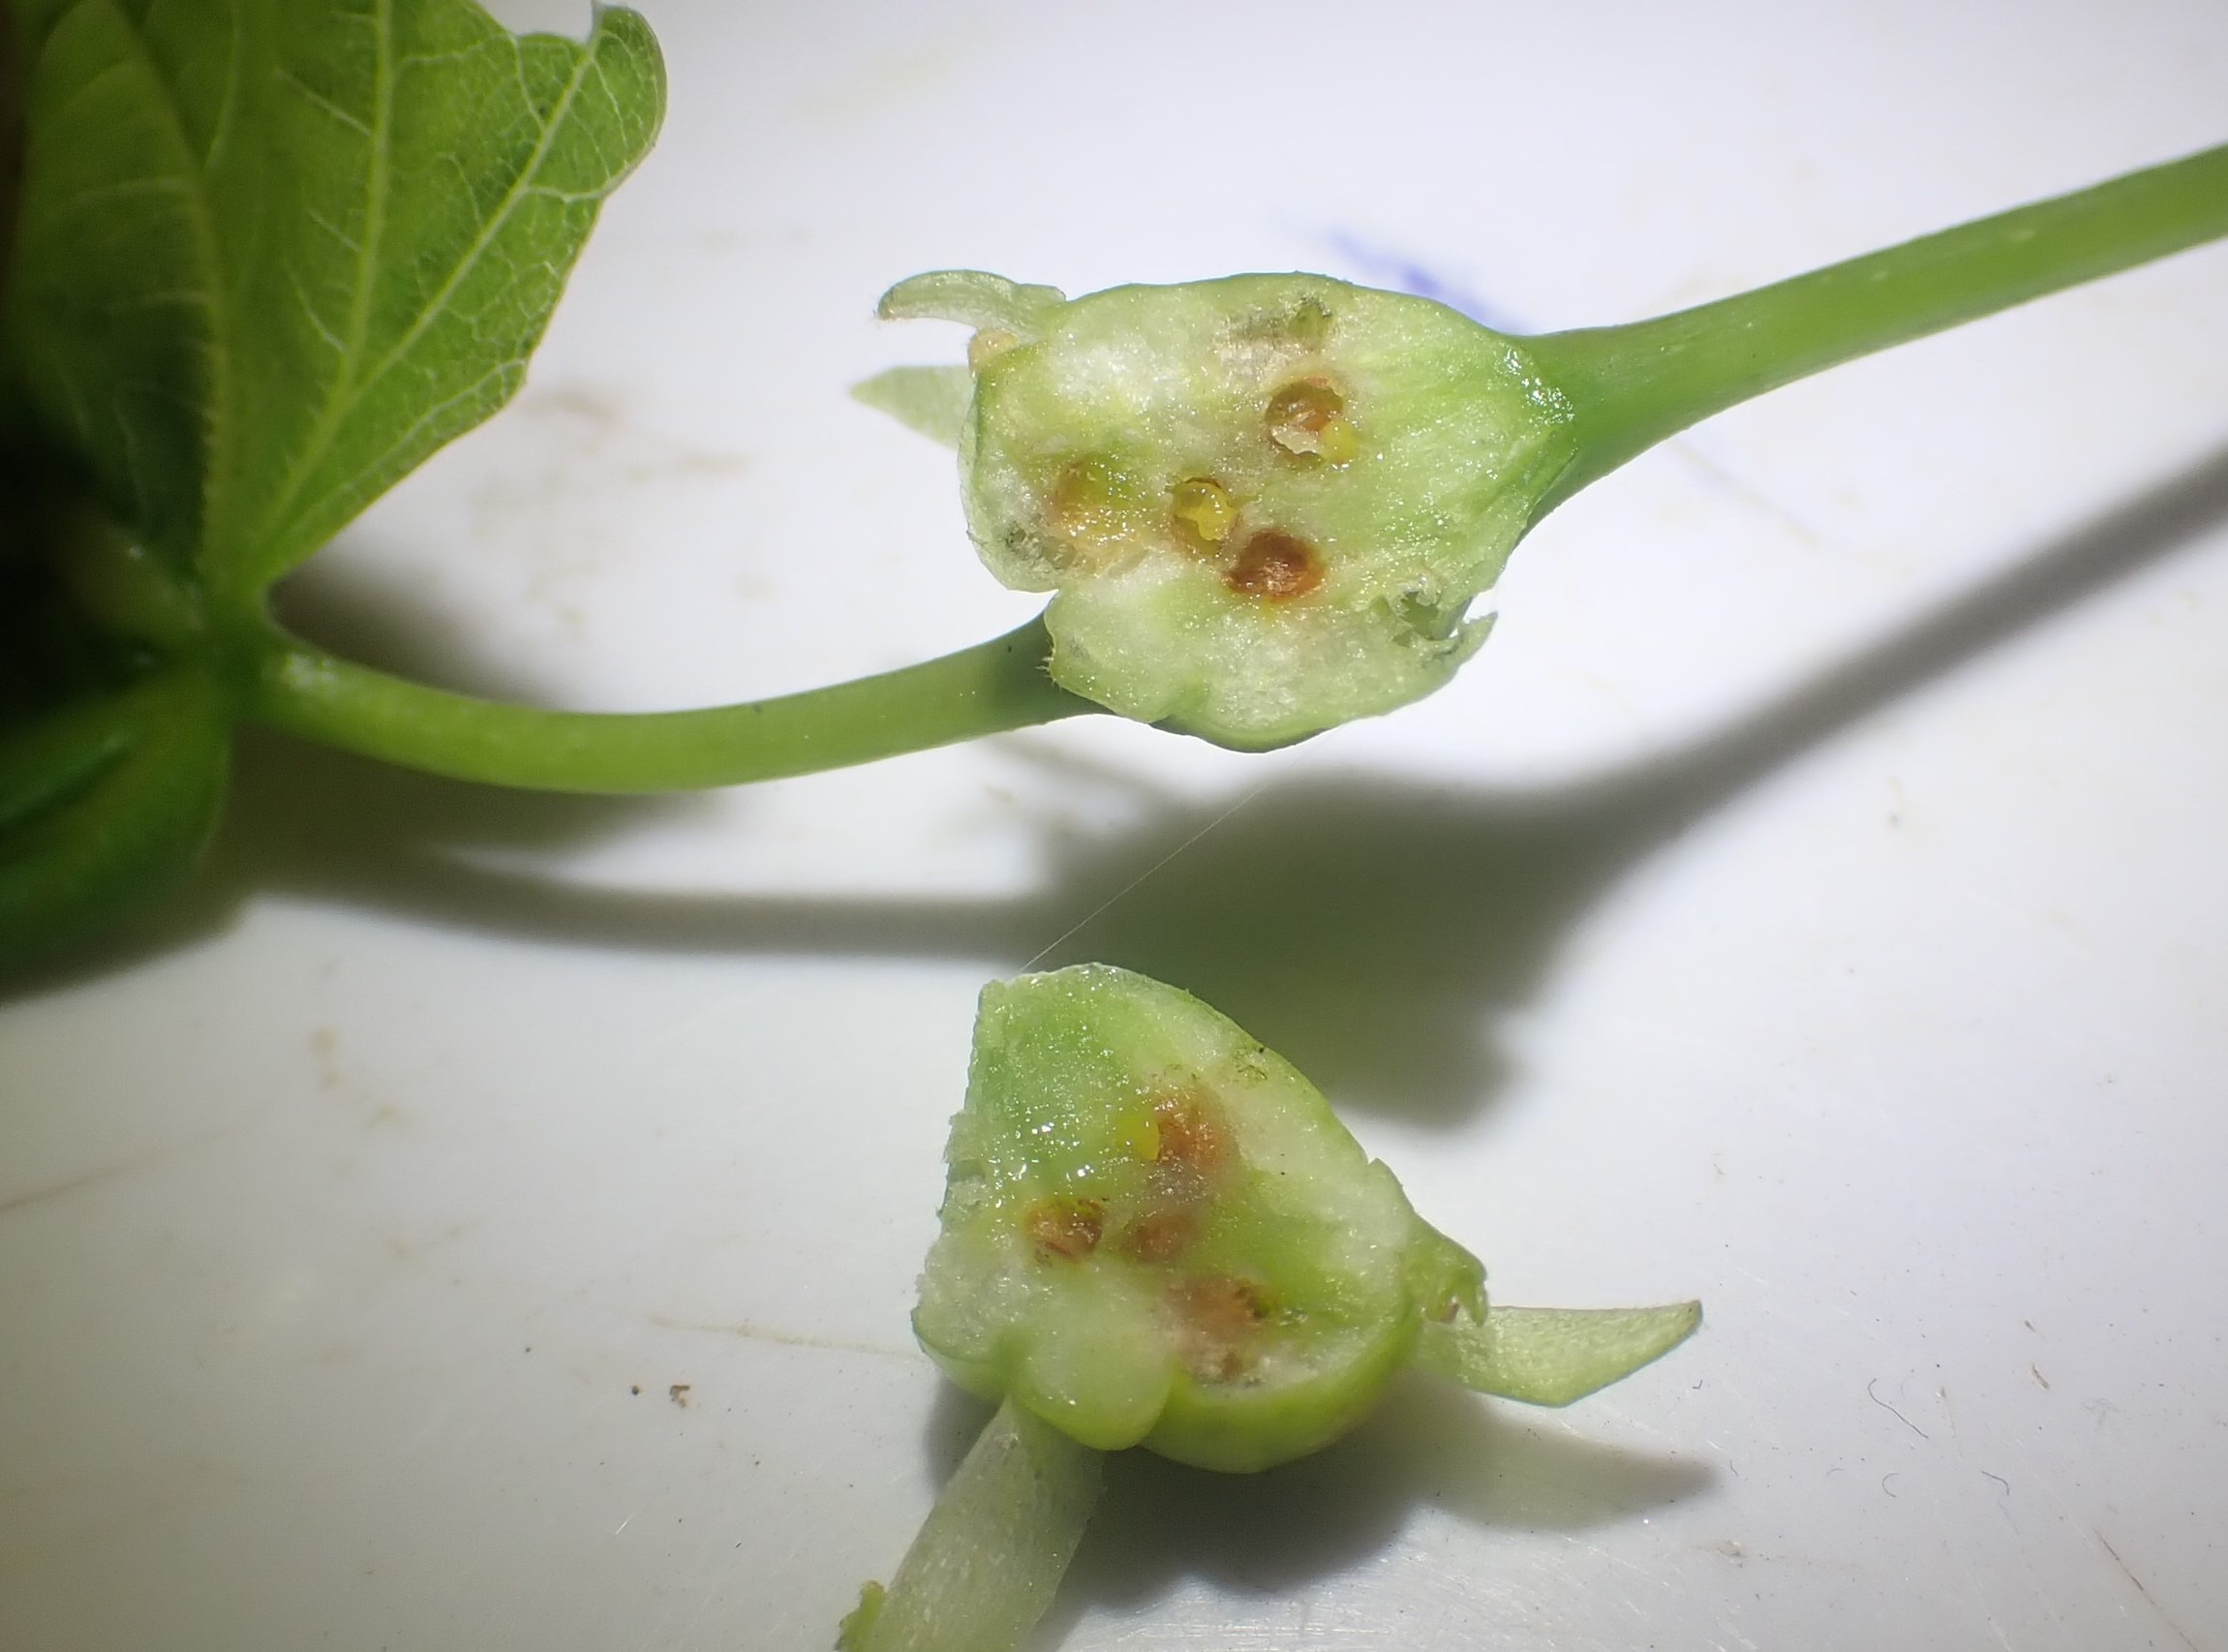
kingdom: Animalia
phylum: Arthropoda
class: Insecta
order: Diptera
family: Cecidomyiidae
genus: Contarinia
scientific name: Contarinia tiliarum
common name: Springende lindegalmyg
